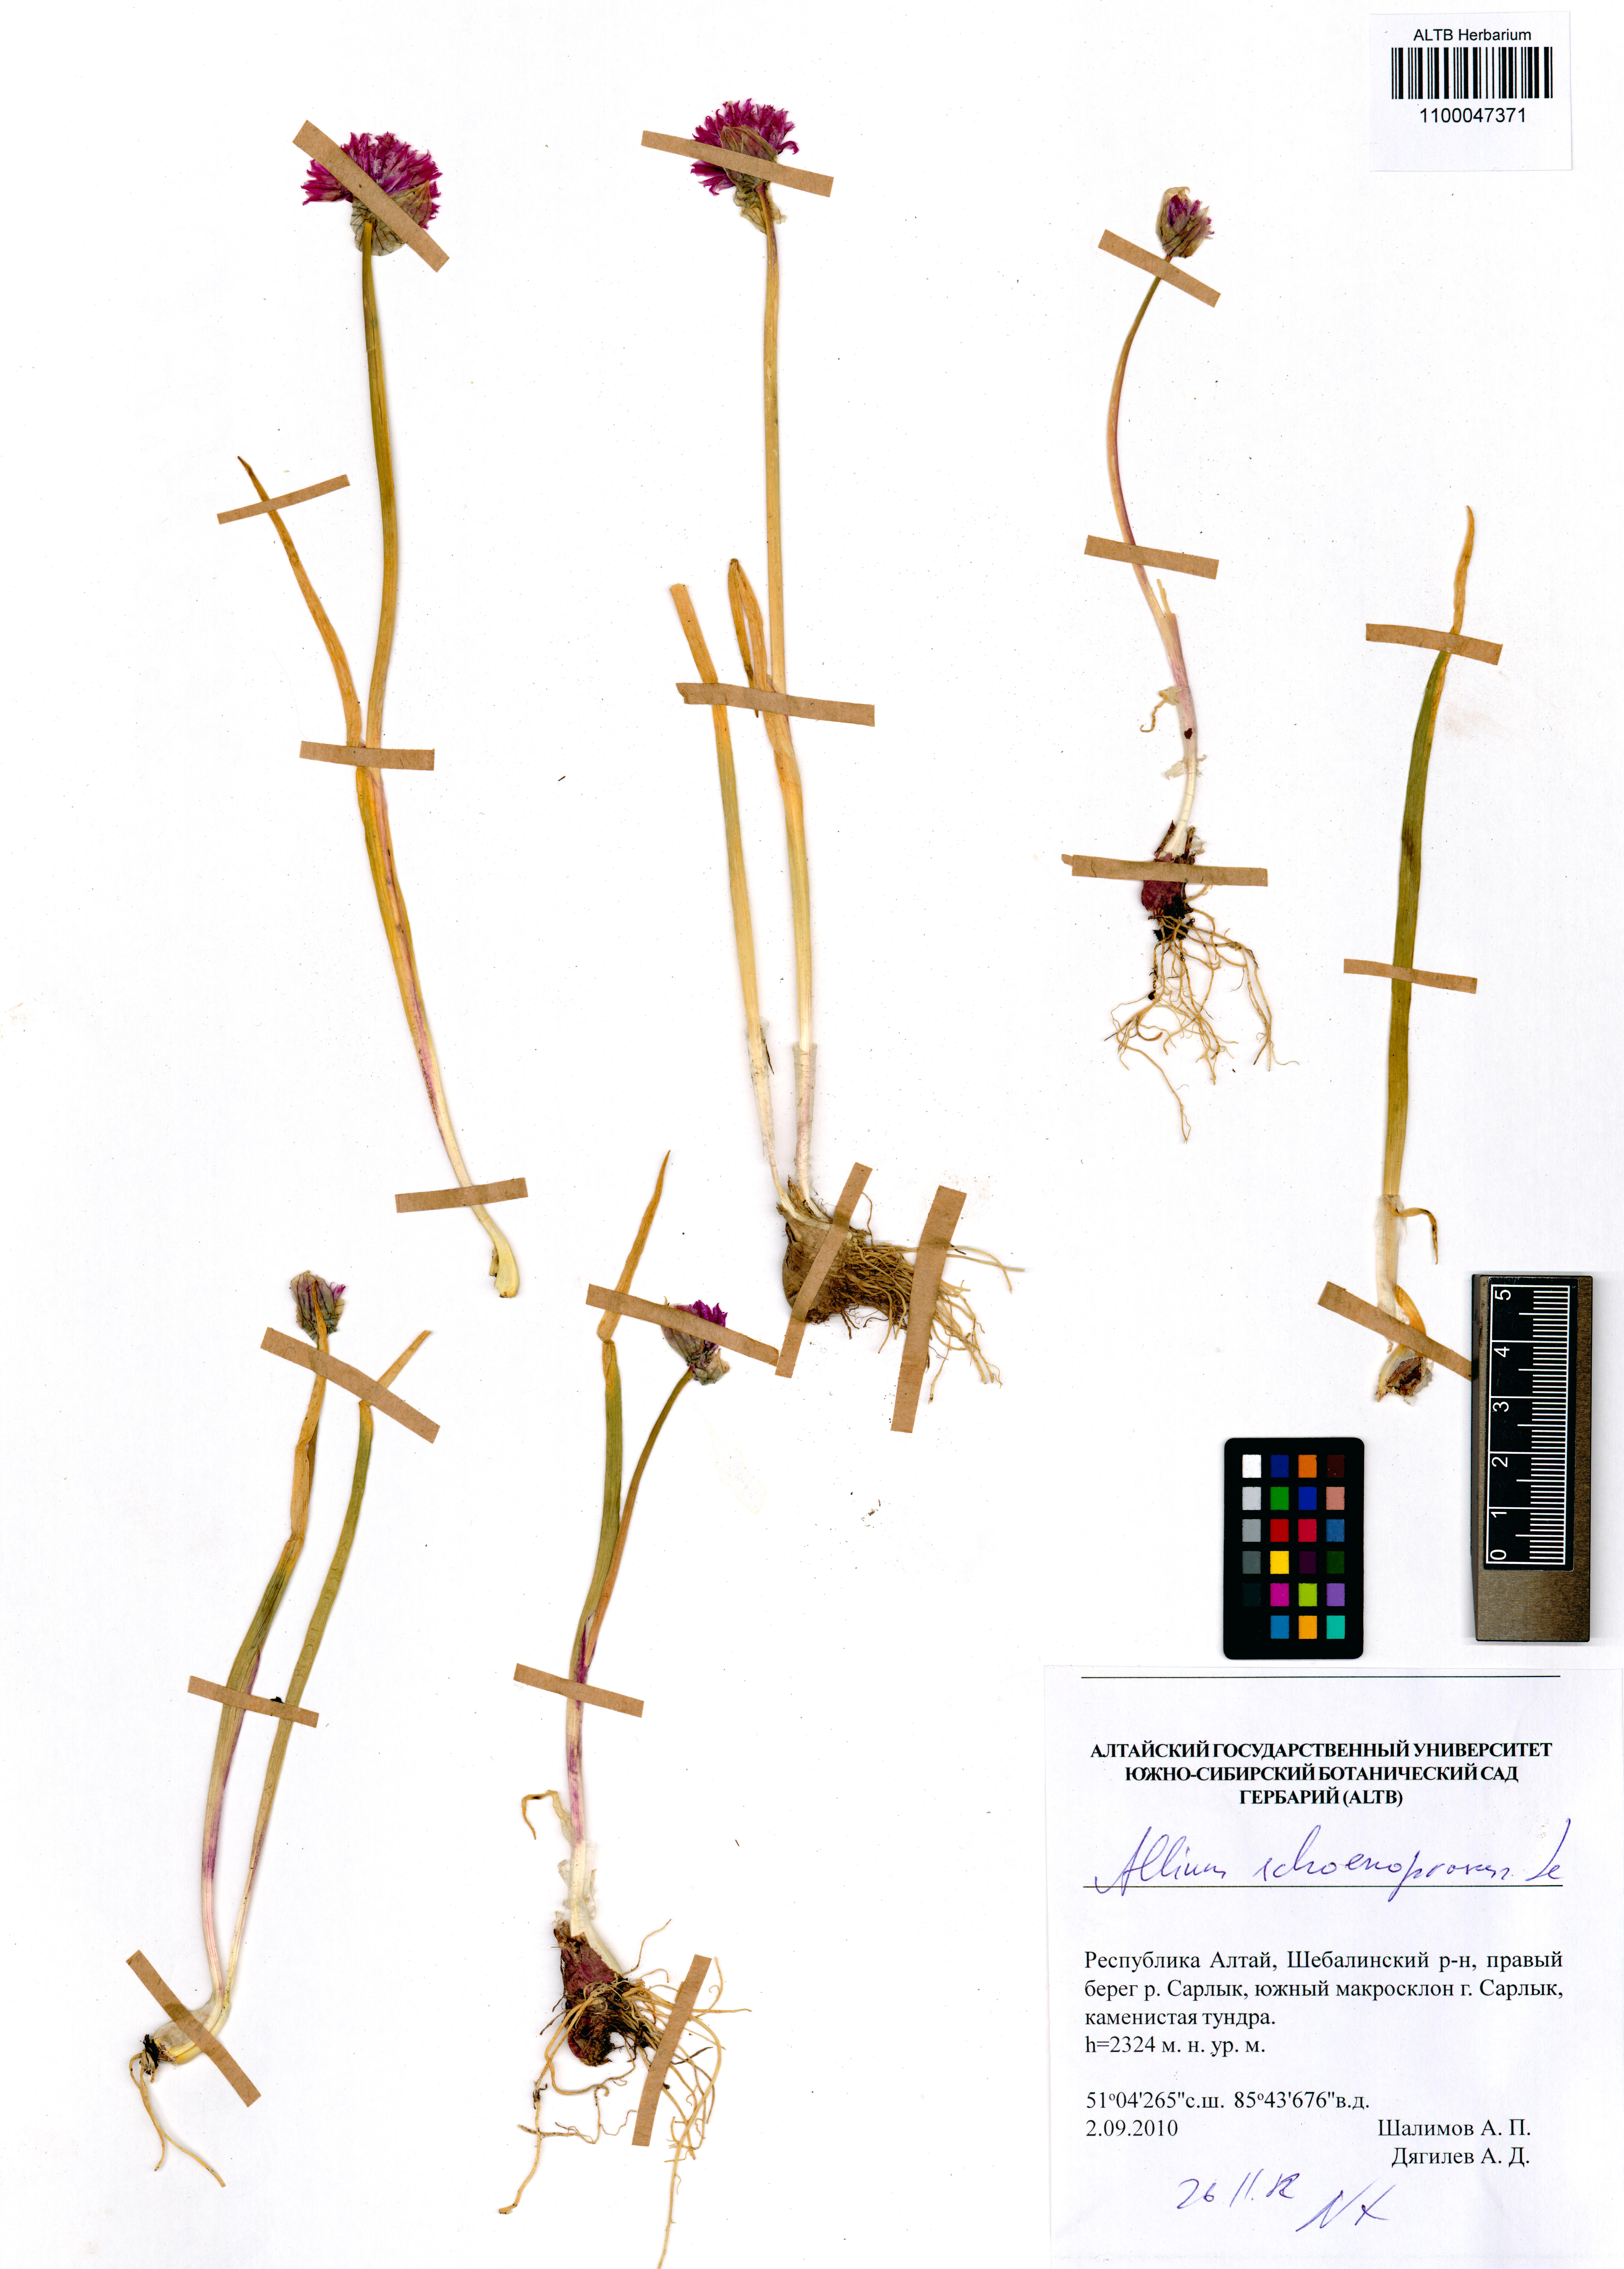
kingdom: Plantae
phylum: Tracheophyta
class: Liliopsida
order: Asparagales
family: Amaryllidaceae
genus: Allium
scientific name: Allium schoenoprasum
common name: Chives
